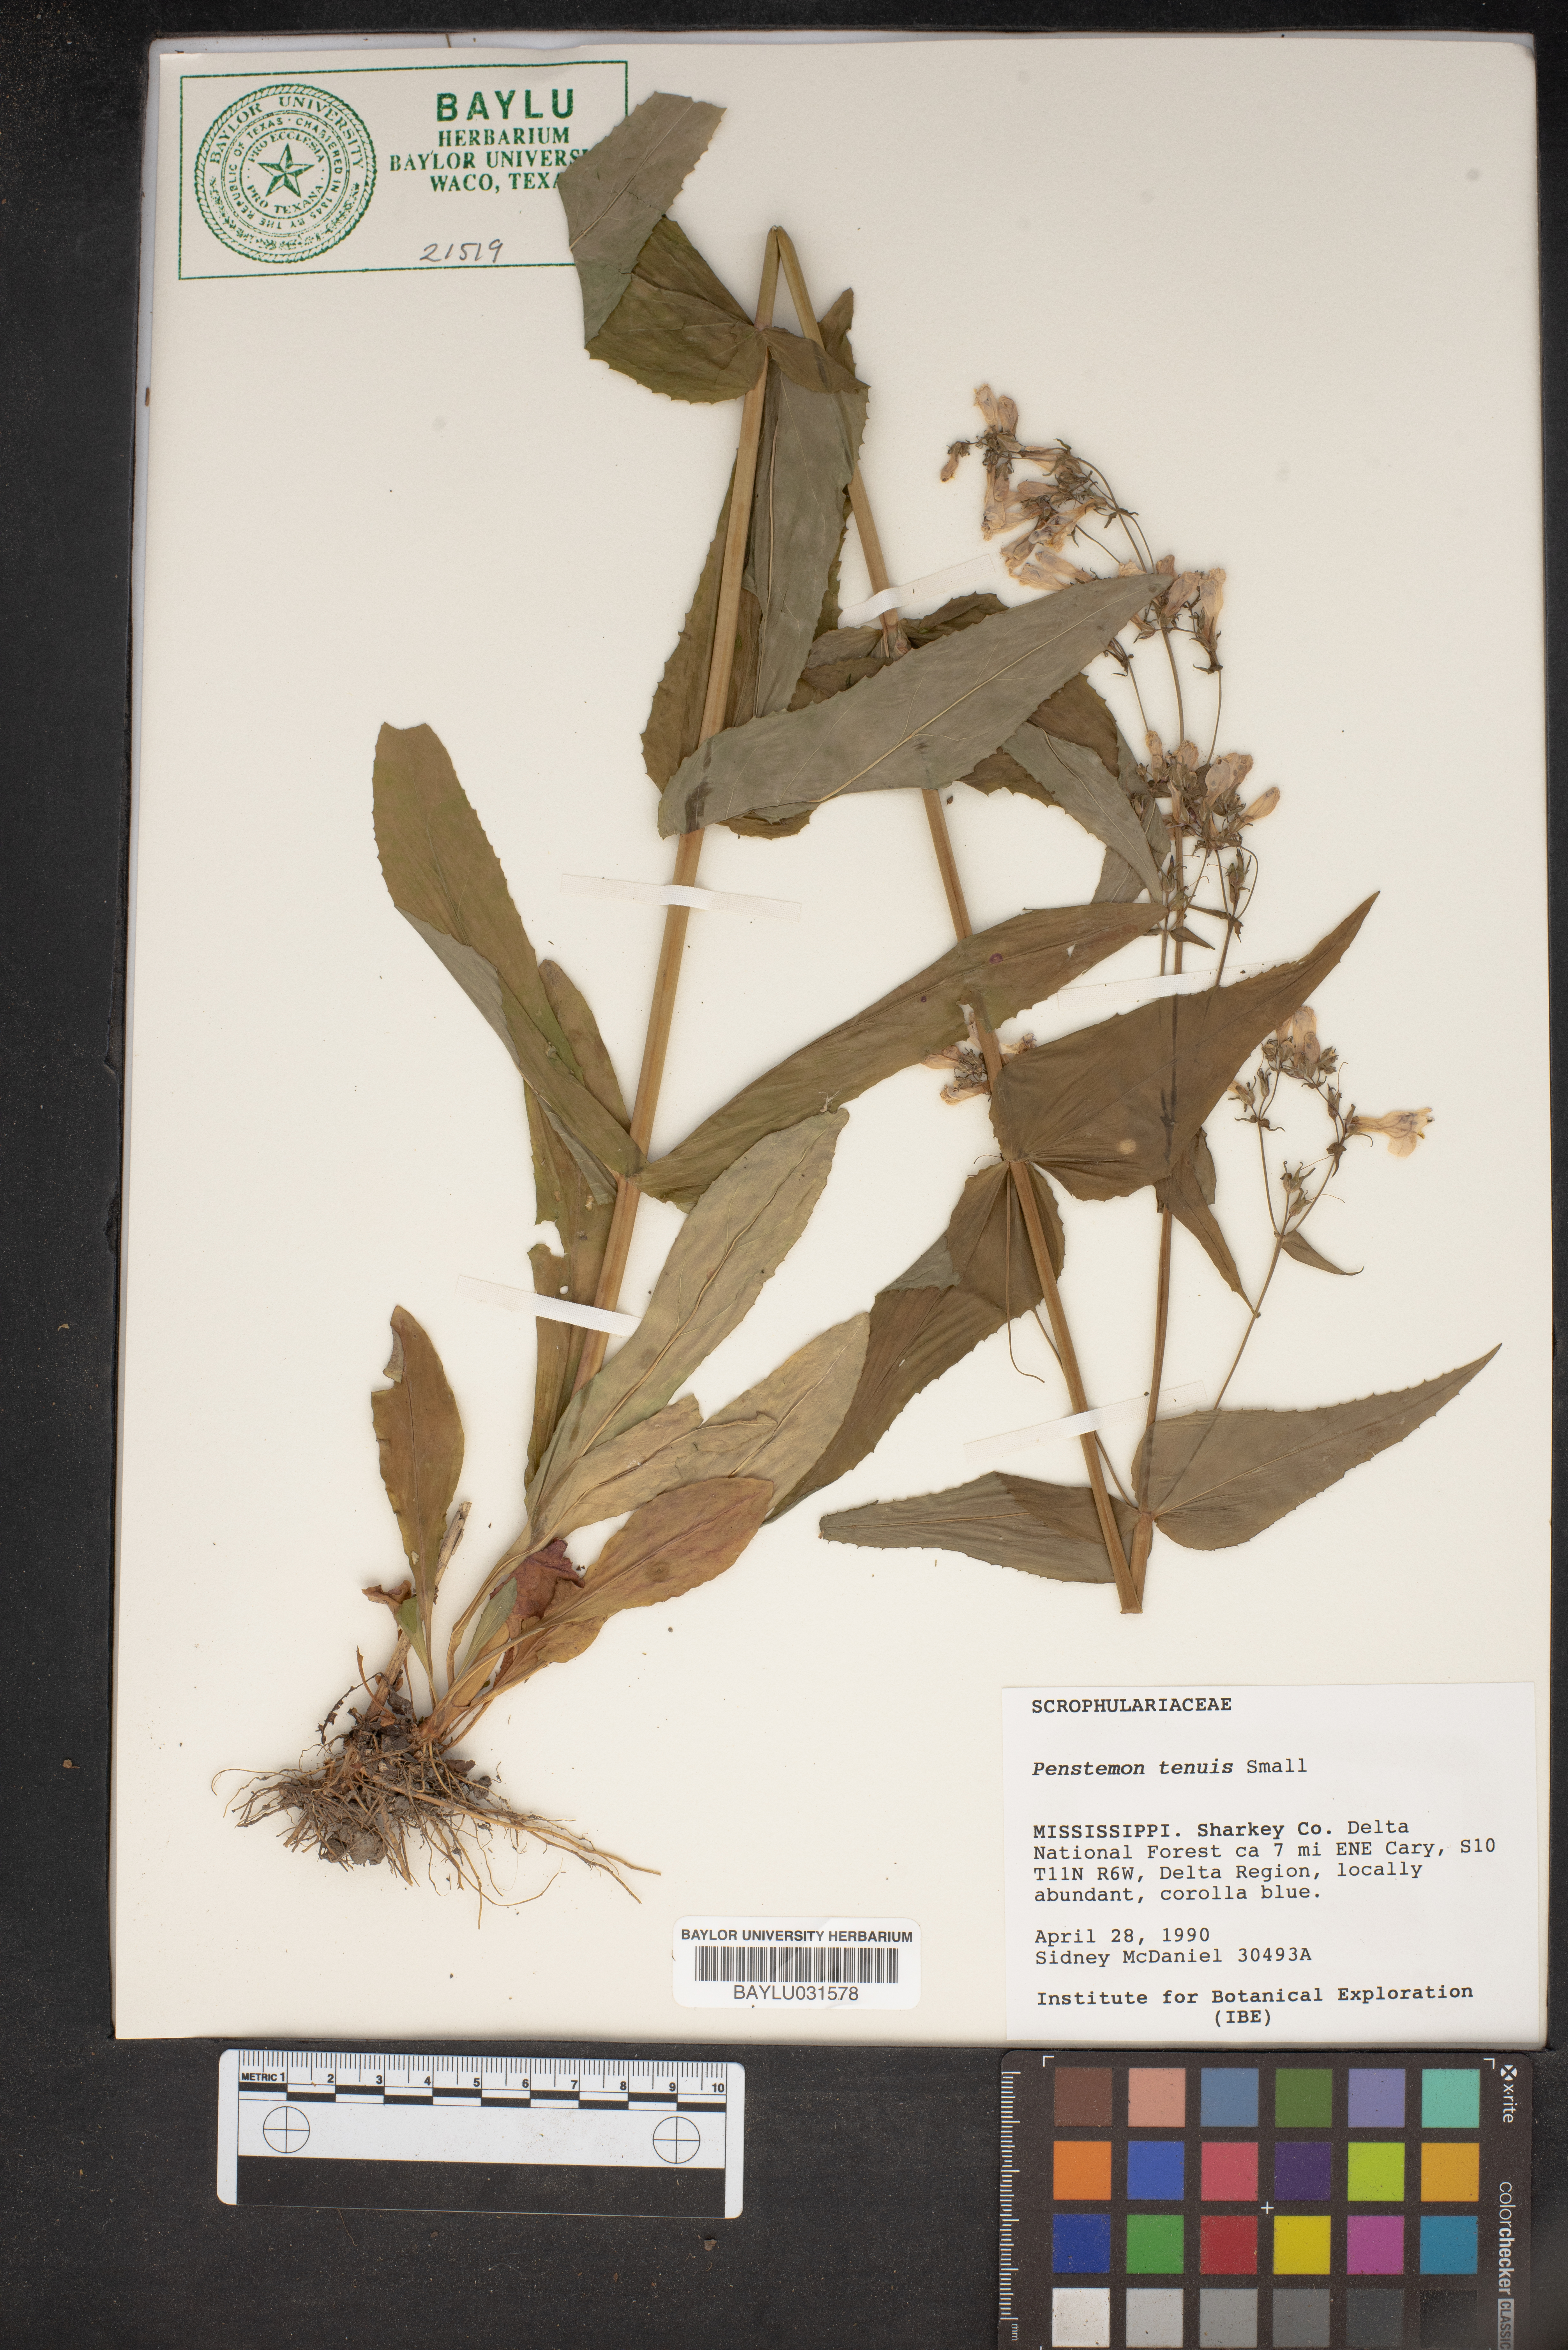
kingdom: Plantae
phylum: Tracheophyta
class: Magnoliopsida
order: Lamiales
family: Plantaginaceae
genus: Penstemon
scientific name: Penstemon tenuis
